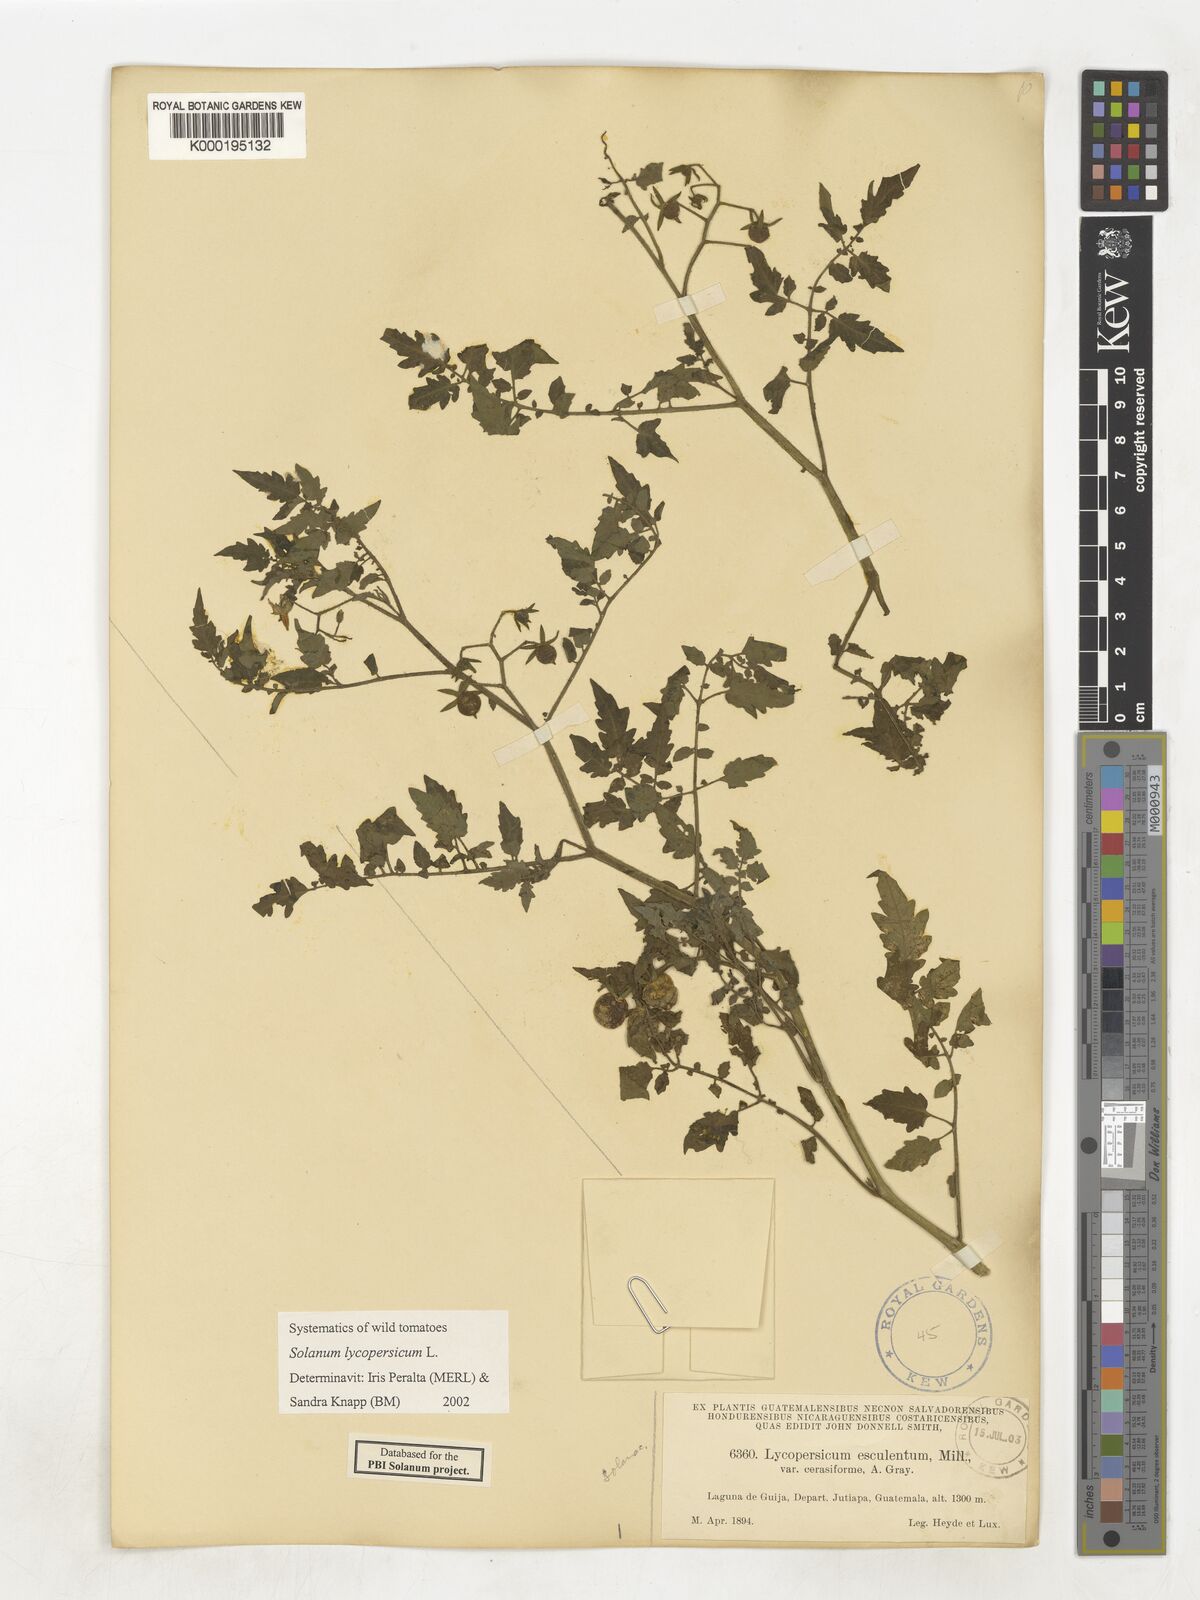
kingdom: Plantae
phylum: Tracheophyta
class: Magnoliopsida
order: Solanales
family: Solanaceae
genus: Solanum
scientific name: Solanum lycopersicum
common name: Garden tomato
